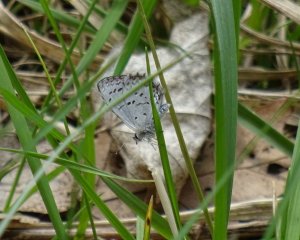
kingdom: Animalia
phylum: Arthropoda
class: Insecta
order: Lepidoptera
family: Lycaenidae
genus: Celastrina
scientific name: Celastrina
